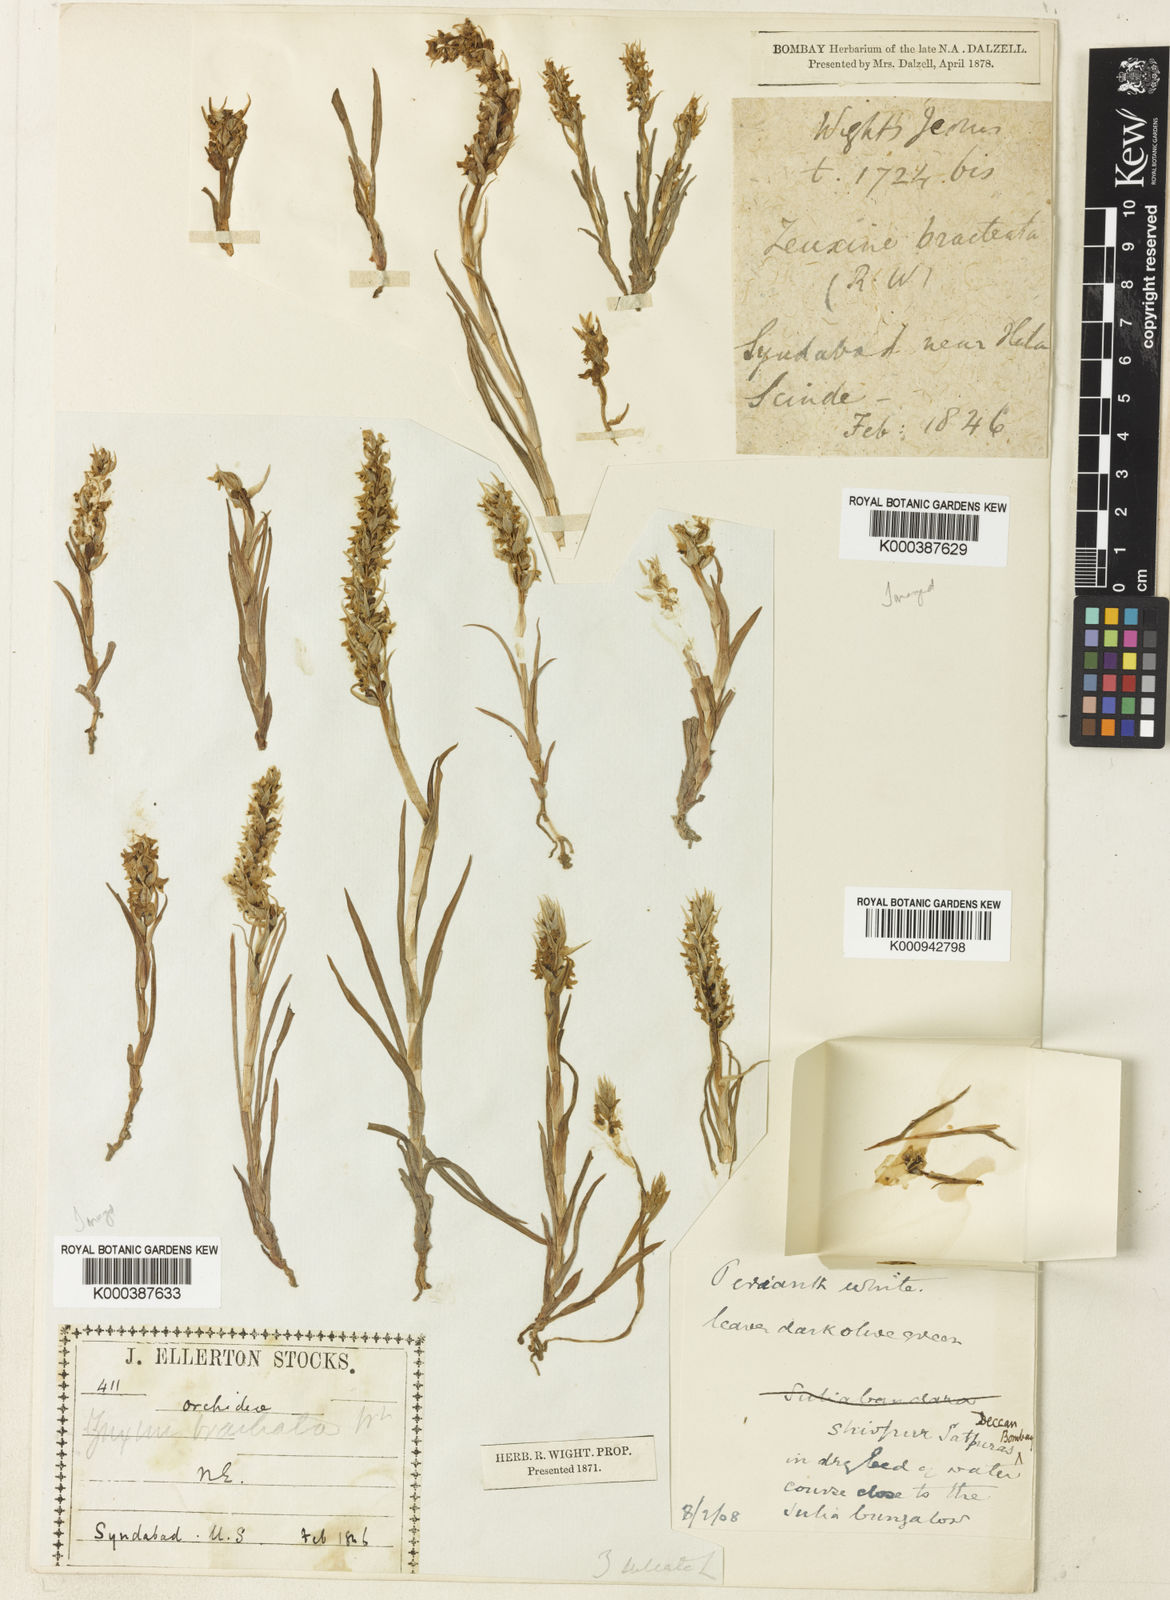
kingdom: Plantae
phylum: Tracheophyta
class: Liliopsida
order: Asparagales
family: Orchidaceae
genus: Zeuxine
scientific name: Zeuxine strateumatica
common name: Soldier's orchid
